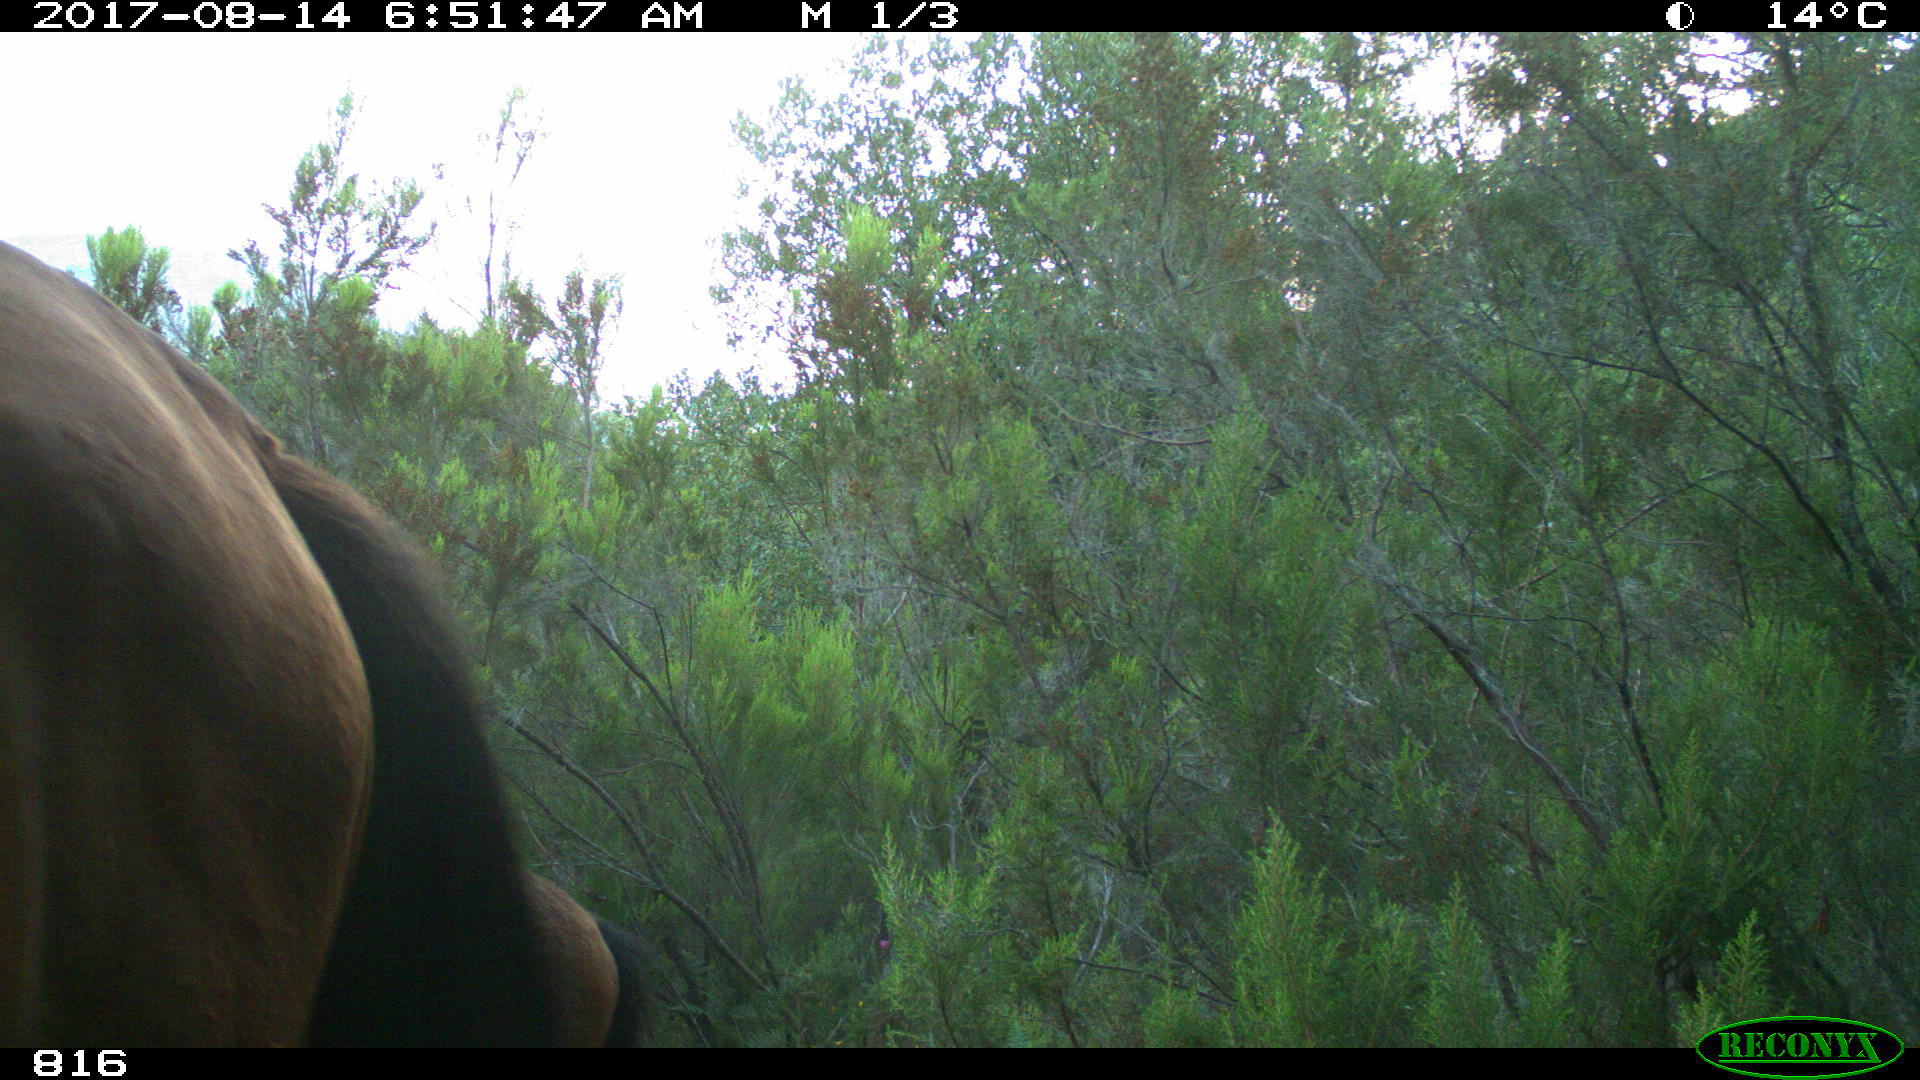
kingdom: Animalia
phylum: Chordata
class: Mammalia
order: Perissodactyla
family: Equidae
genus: Equus
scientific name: Equus caballus
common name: Horse
